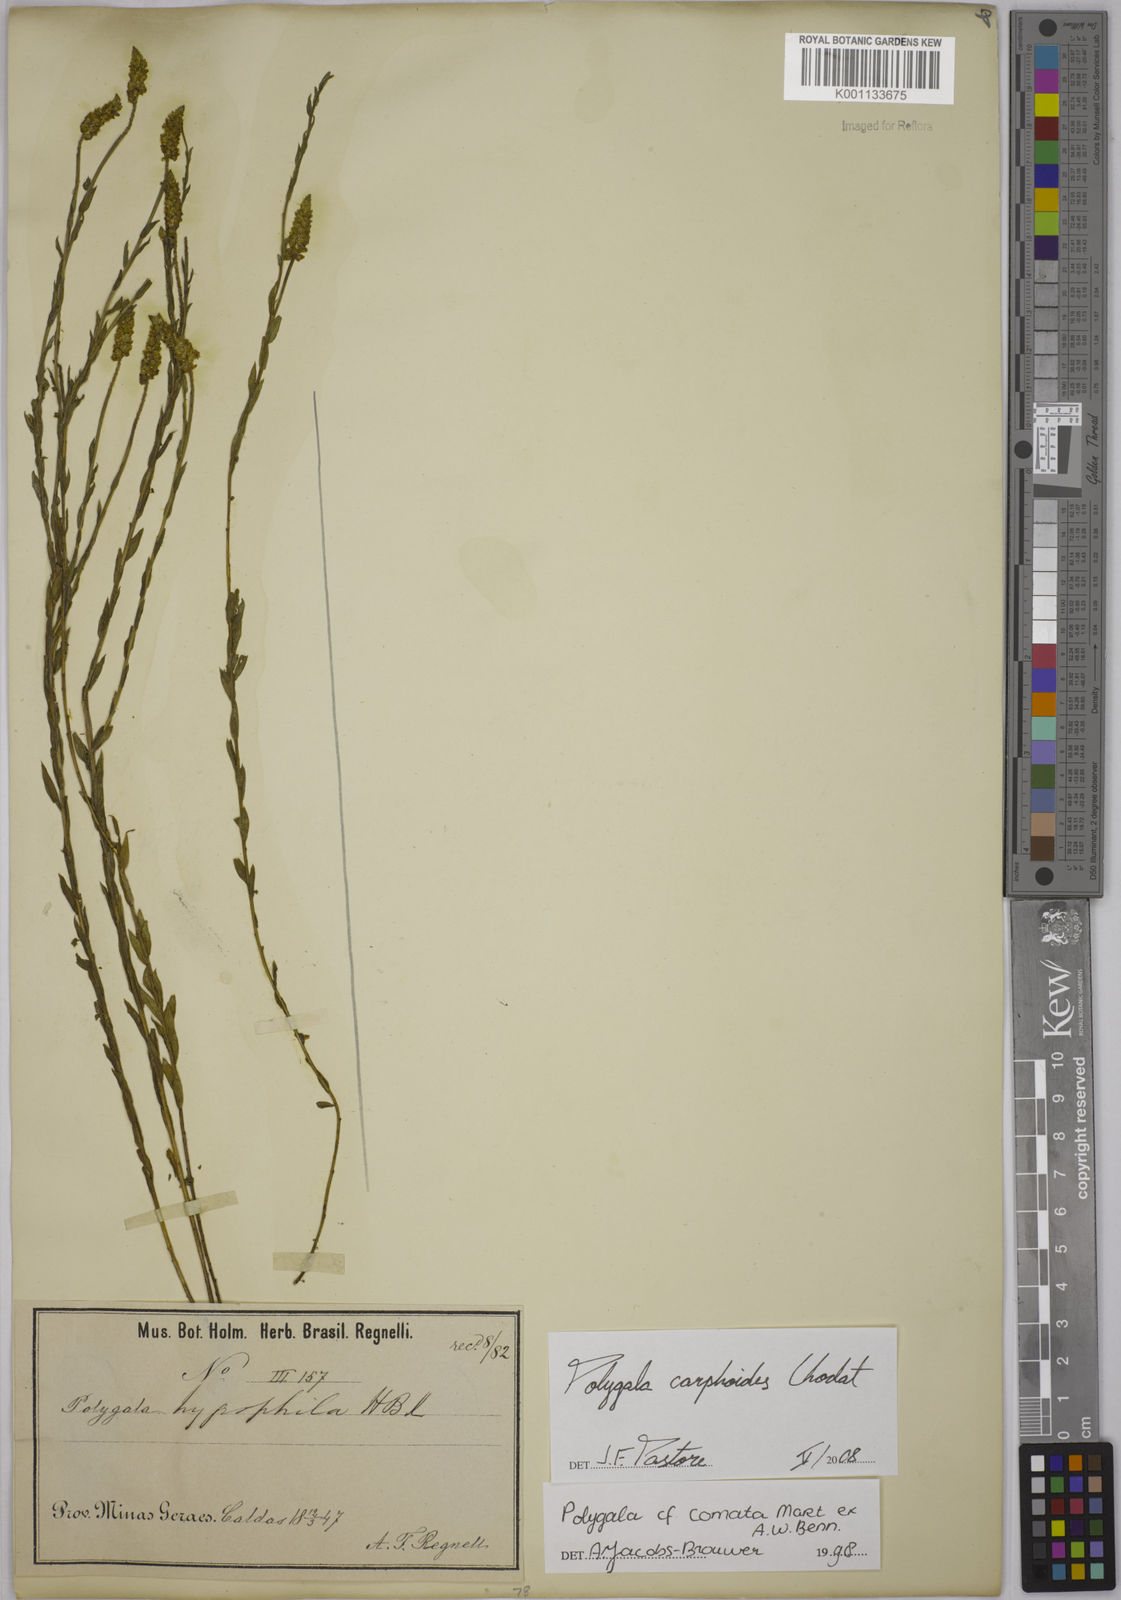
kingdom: Plantae
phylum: Tracheophyta
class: Magnoliopsida
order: Fabales
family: Polygalaceae
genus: Polygala
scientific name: Polygala carphoides
